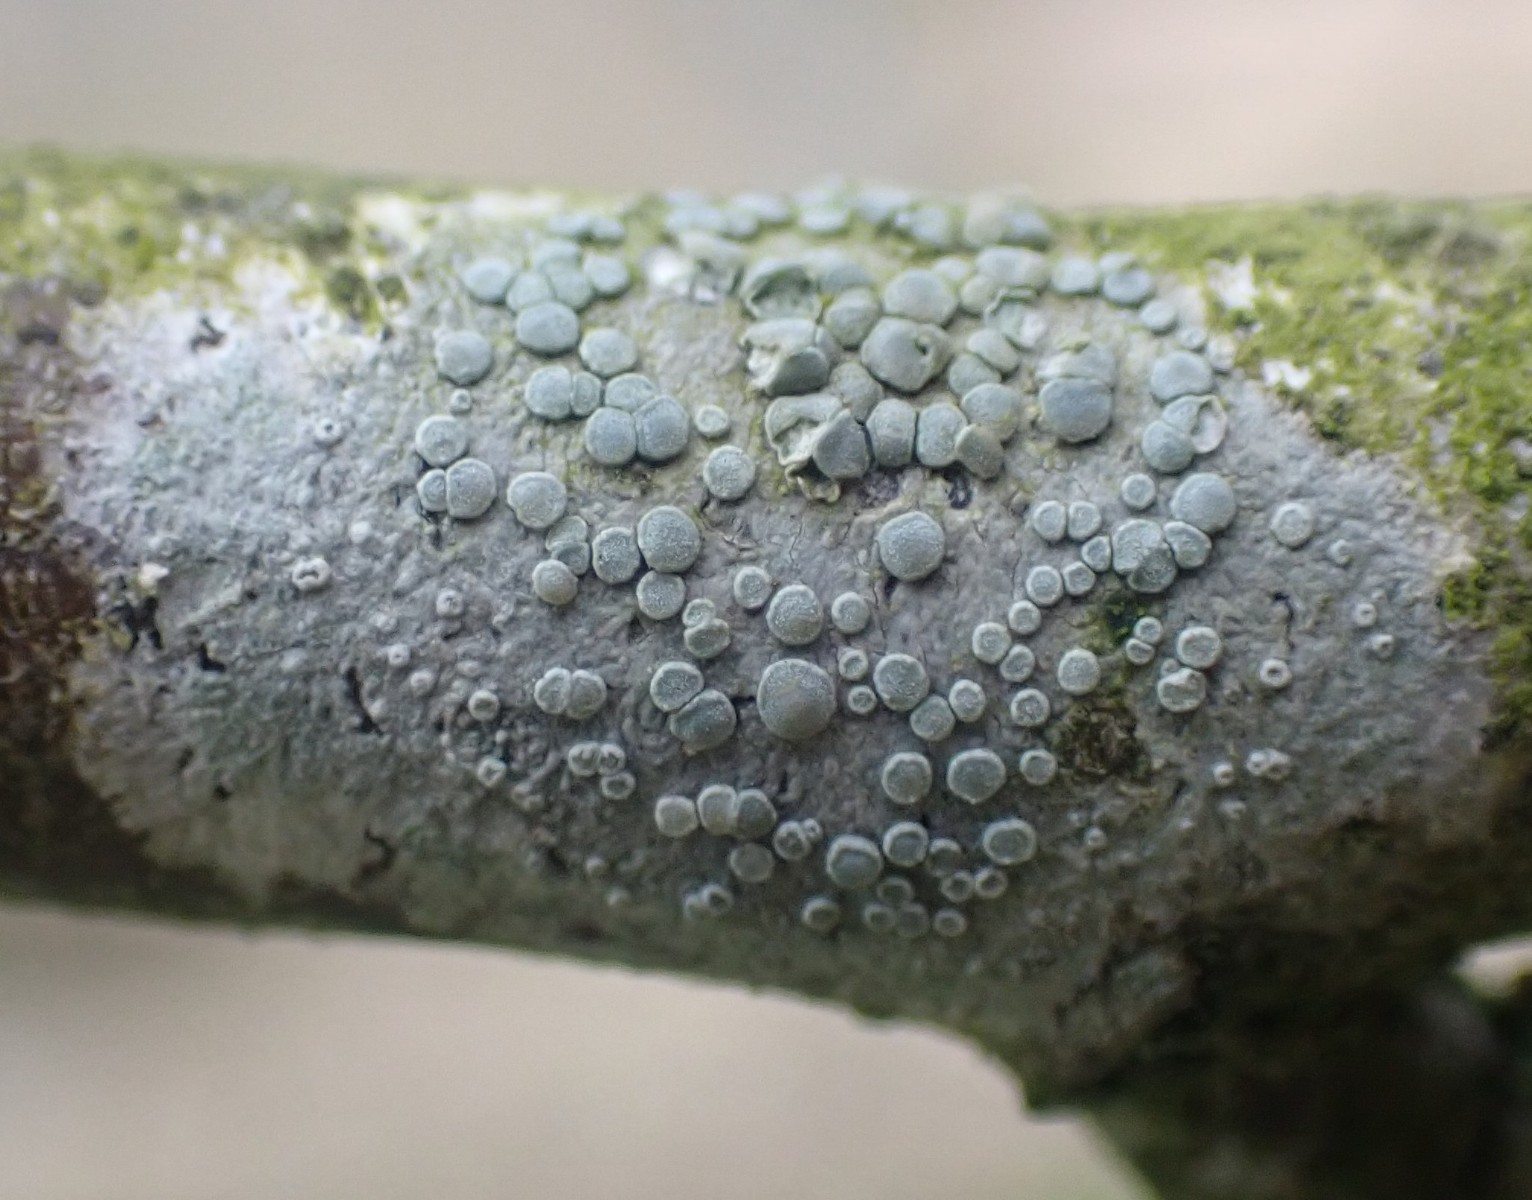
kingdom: Fungi
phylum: Ascomycota
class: Lecanoromycetes
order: Lecanorales
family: Lecanoraceae
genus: Glaucomaria
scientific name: Glaucomaria carpinea
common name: hviddugget kantskivelav
